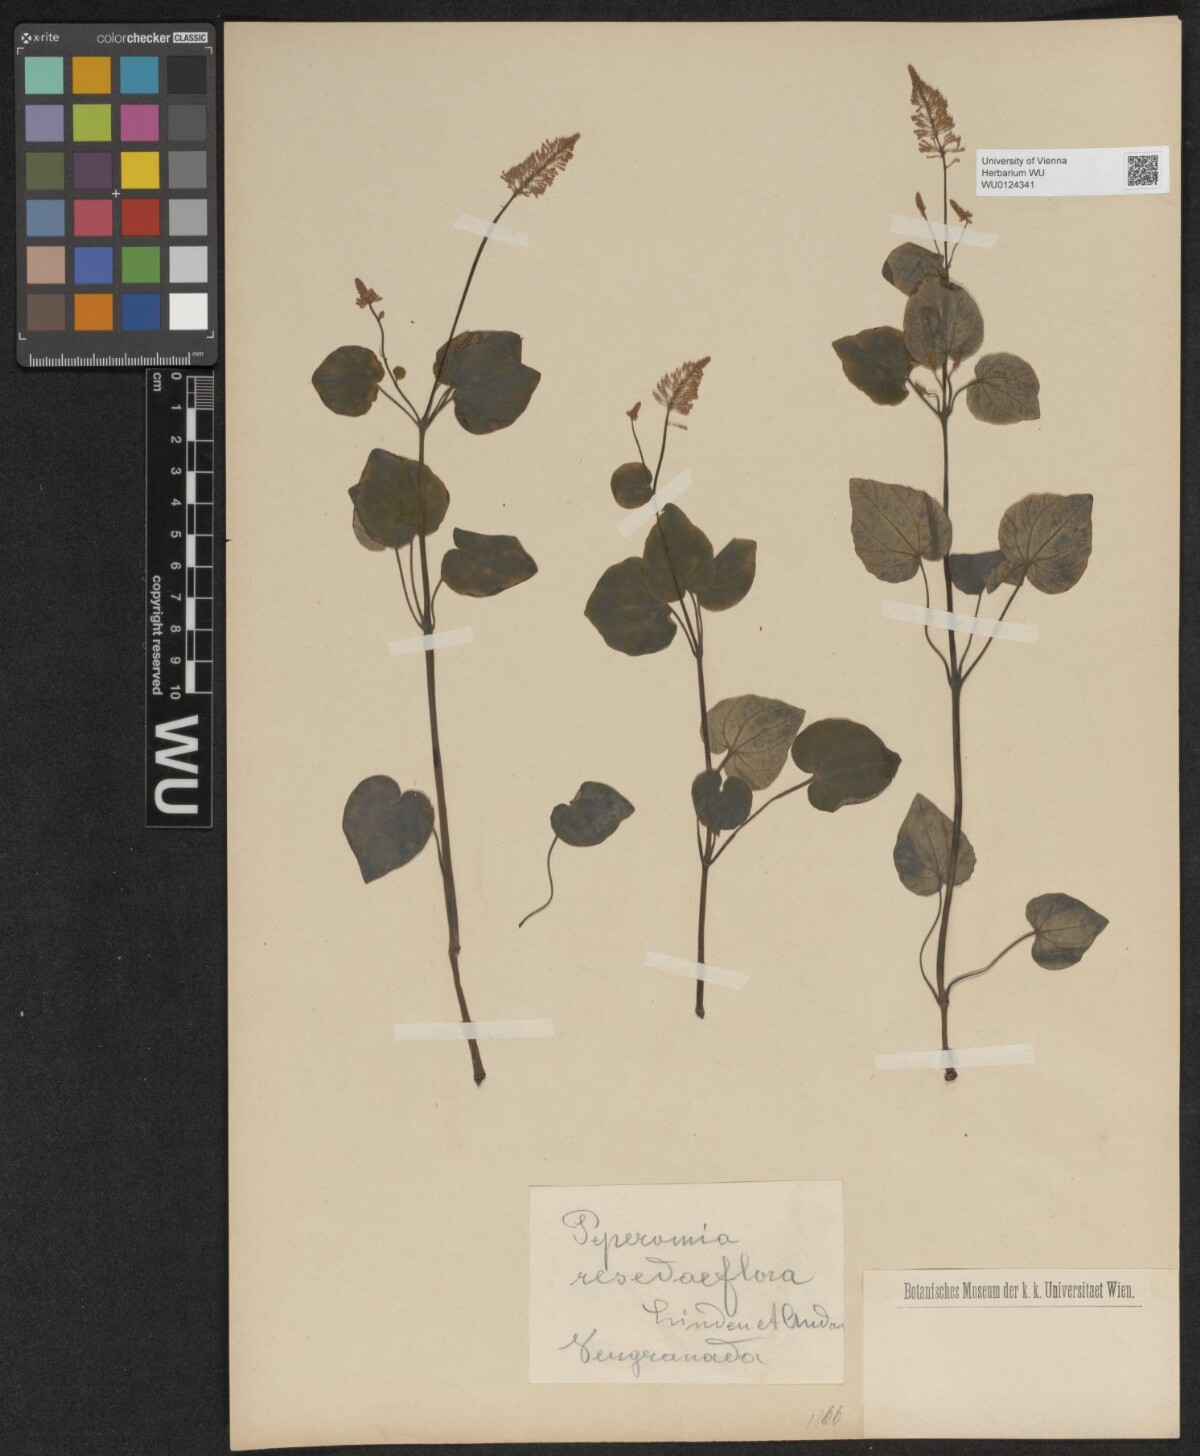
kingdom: Plantae
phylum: Tracheophyta
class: Magnoliopsida
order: Piperales
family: Piperaceae
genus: Peperomia
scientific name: Peperomia fraseri
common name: Mignonette peperomia
